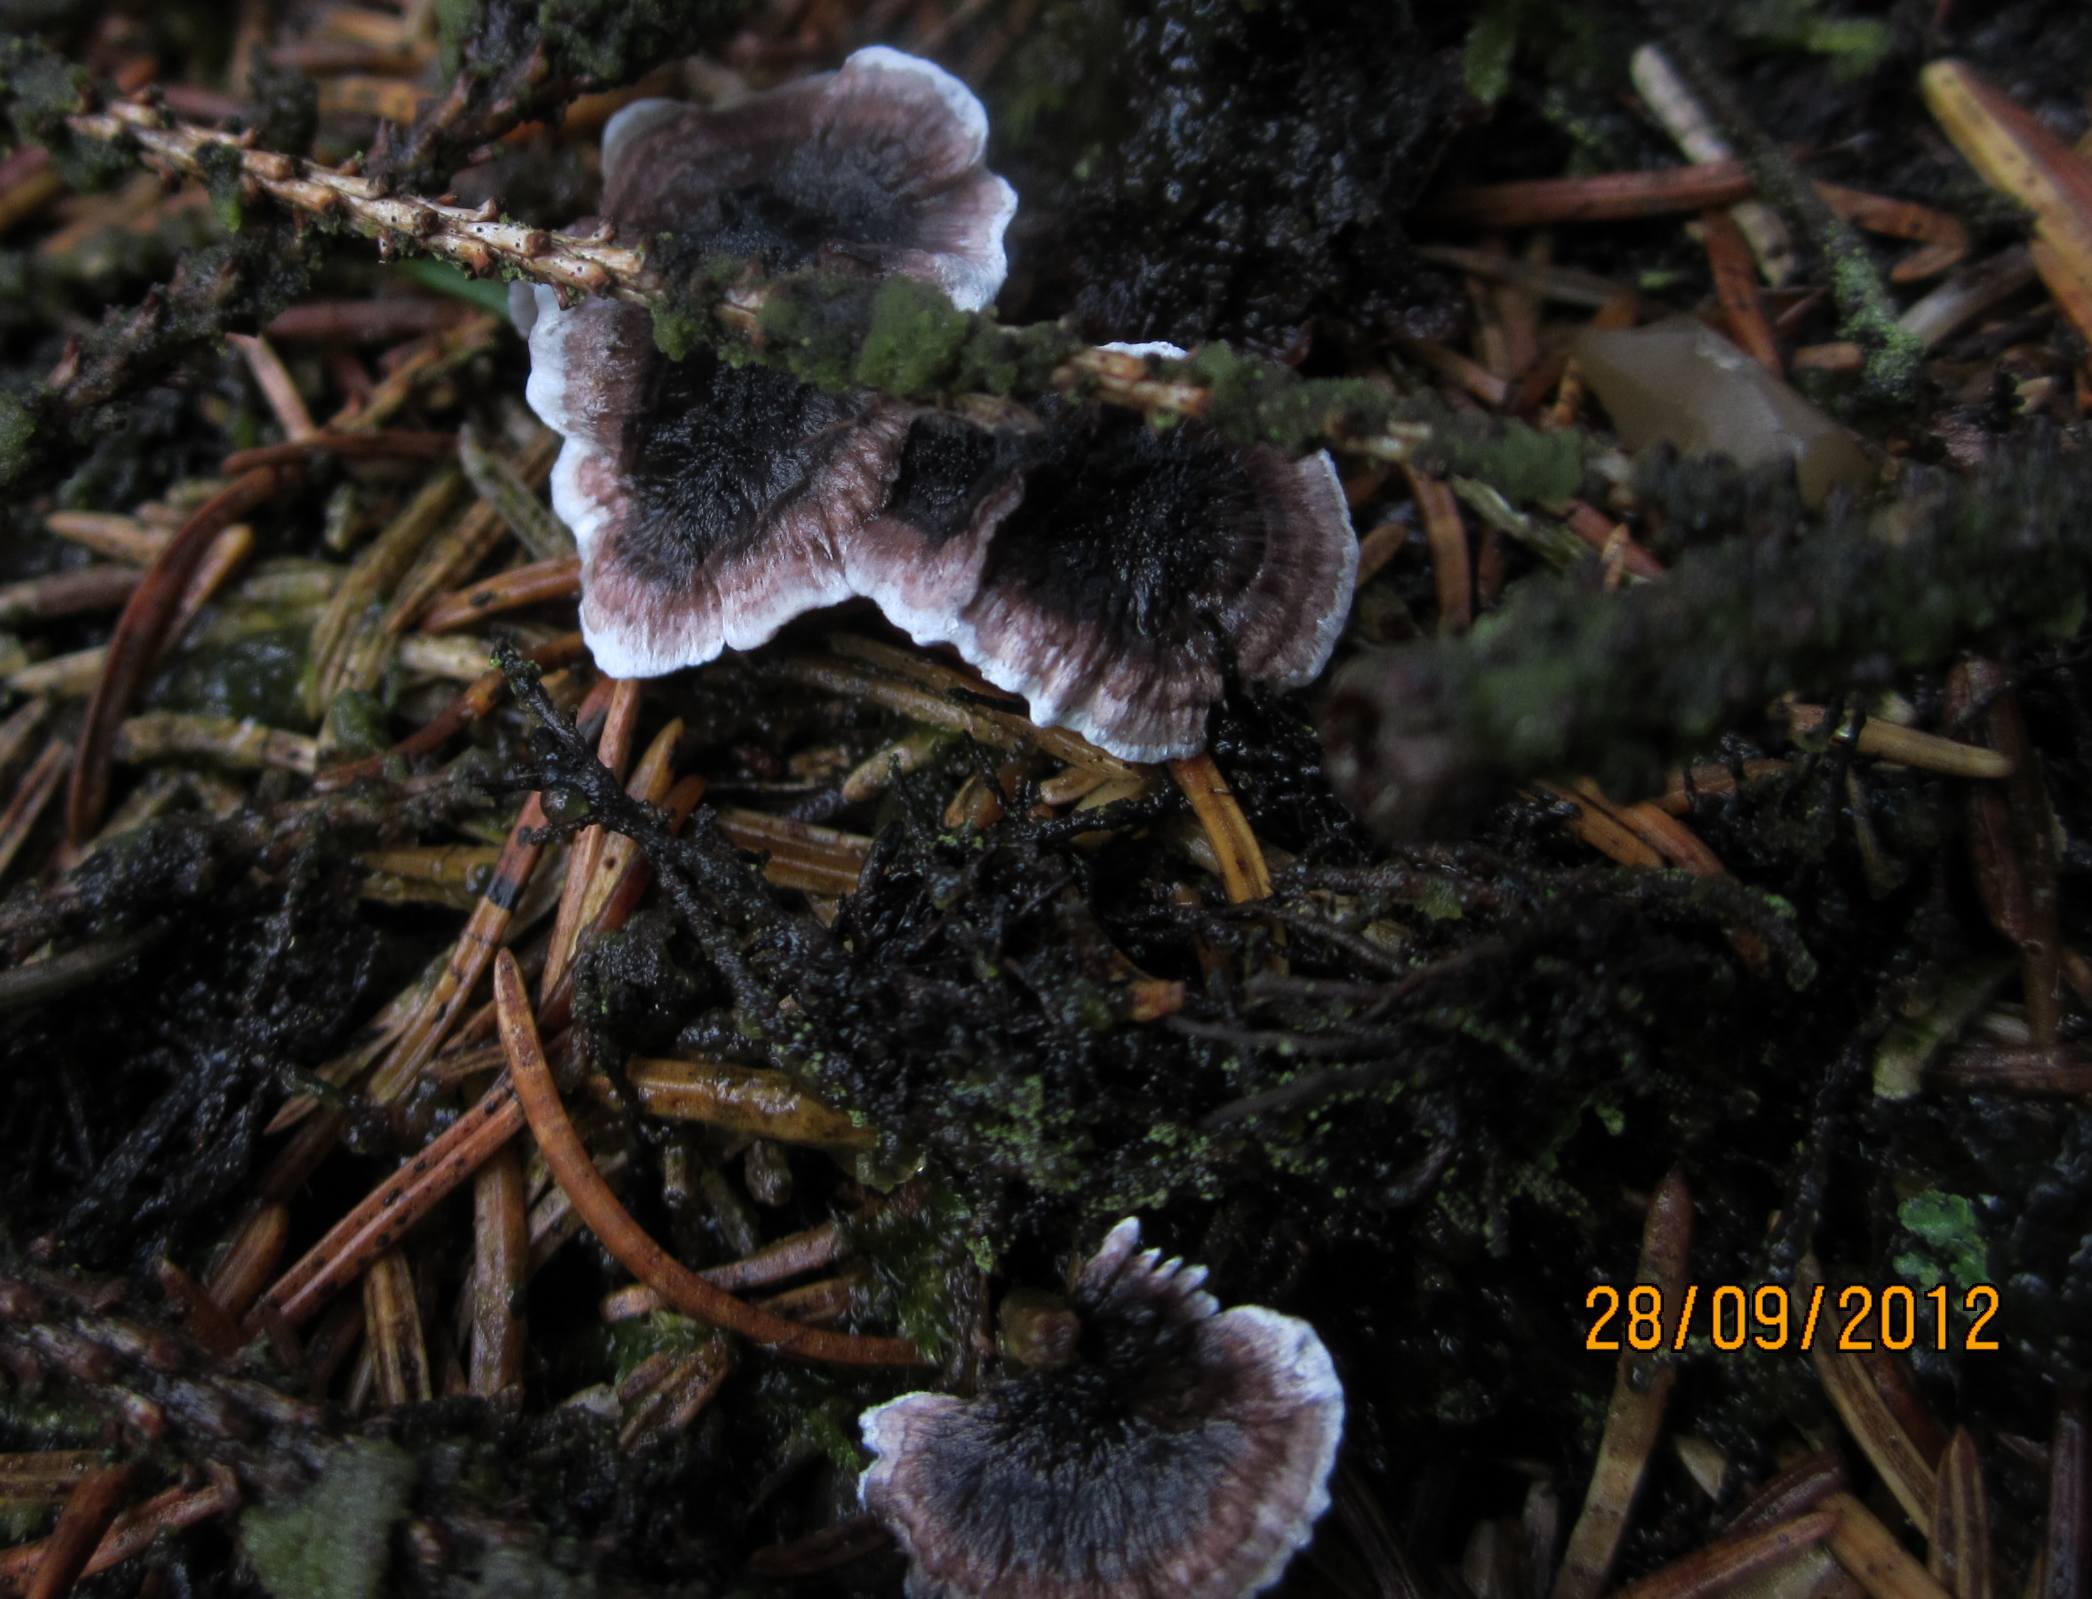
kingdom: Fungi
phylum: Basidiomycota
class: Agaricomycetes
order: Thelephorales
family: Thelephoraceae
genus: Phellodon
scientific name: Phellodon tomentosus
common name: vellugtende duftpigsvamp
